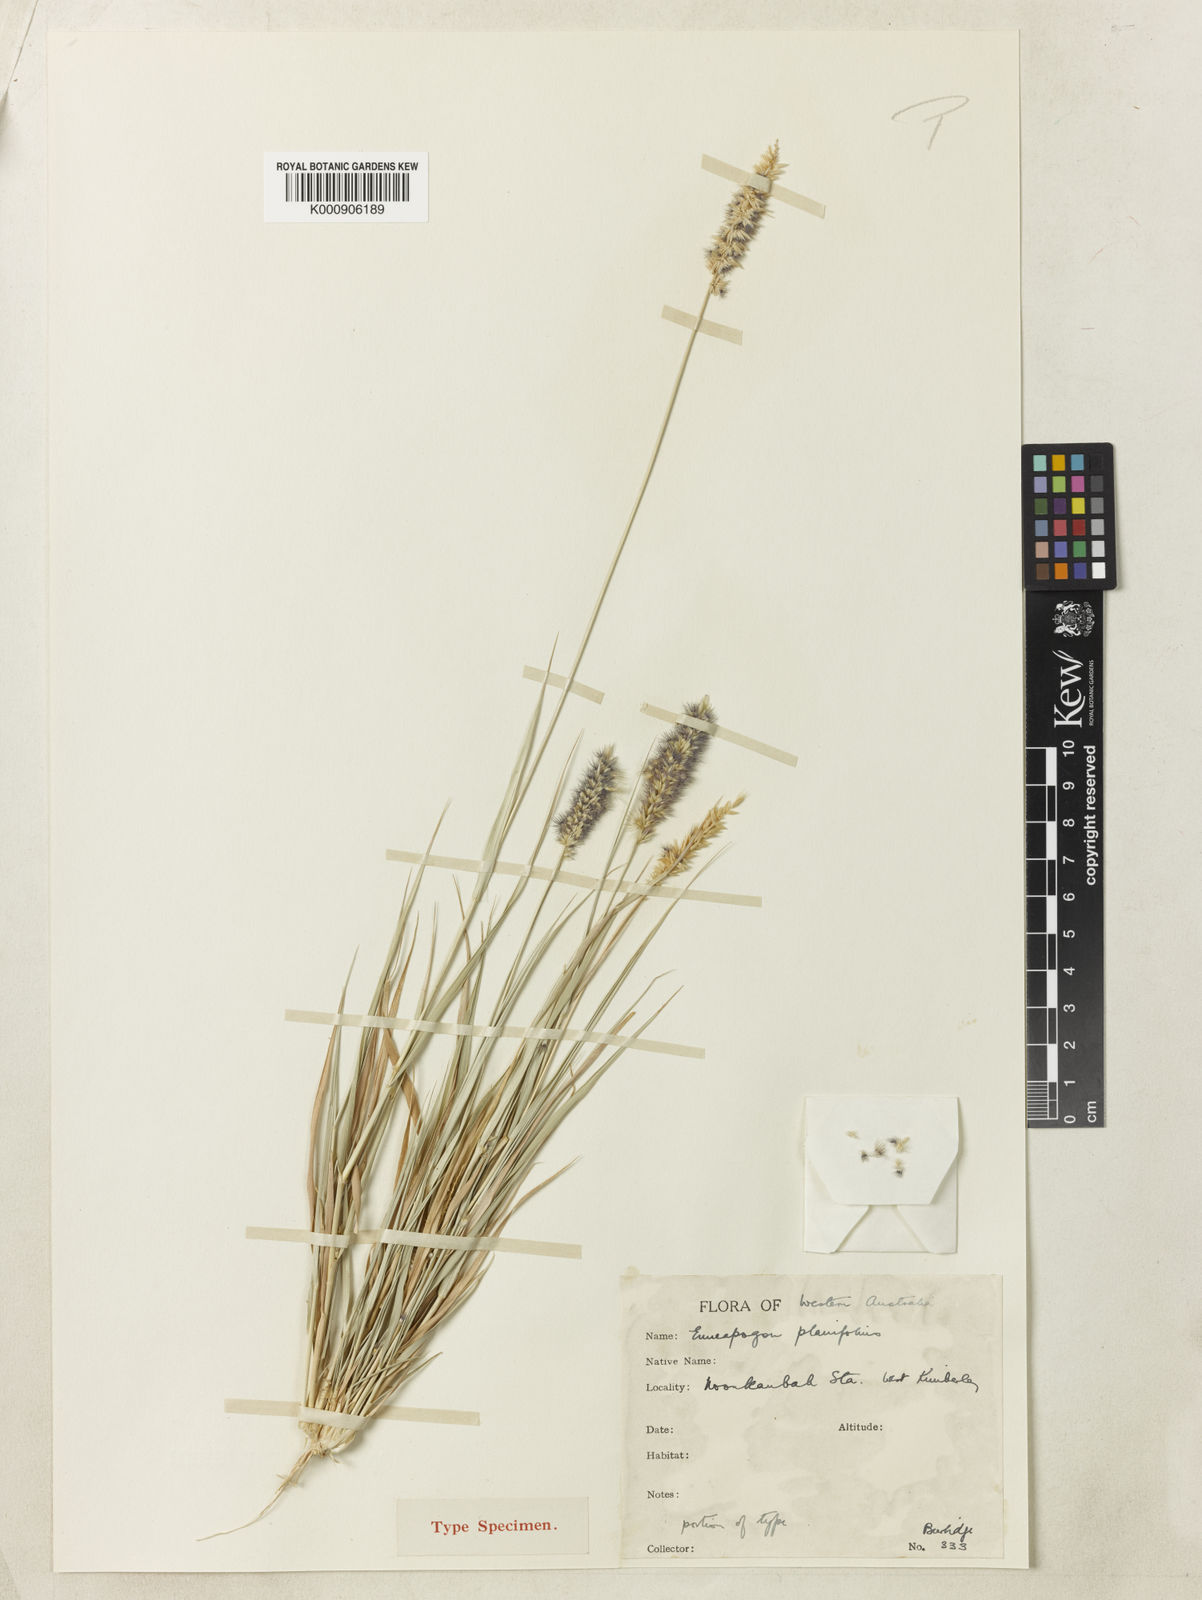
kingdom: Plantae
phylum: Tracheophyta
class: Liliopsida
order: Poales
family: Poaceae
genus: Enneapogon
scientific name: Enneapogon purpurascens
